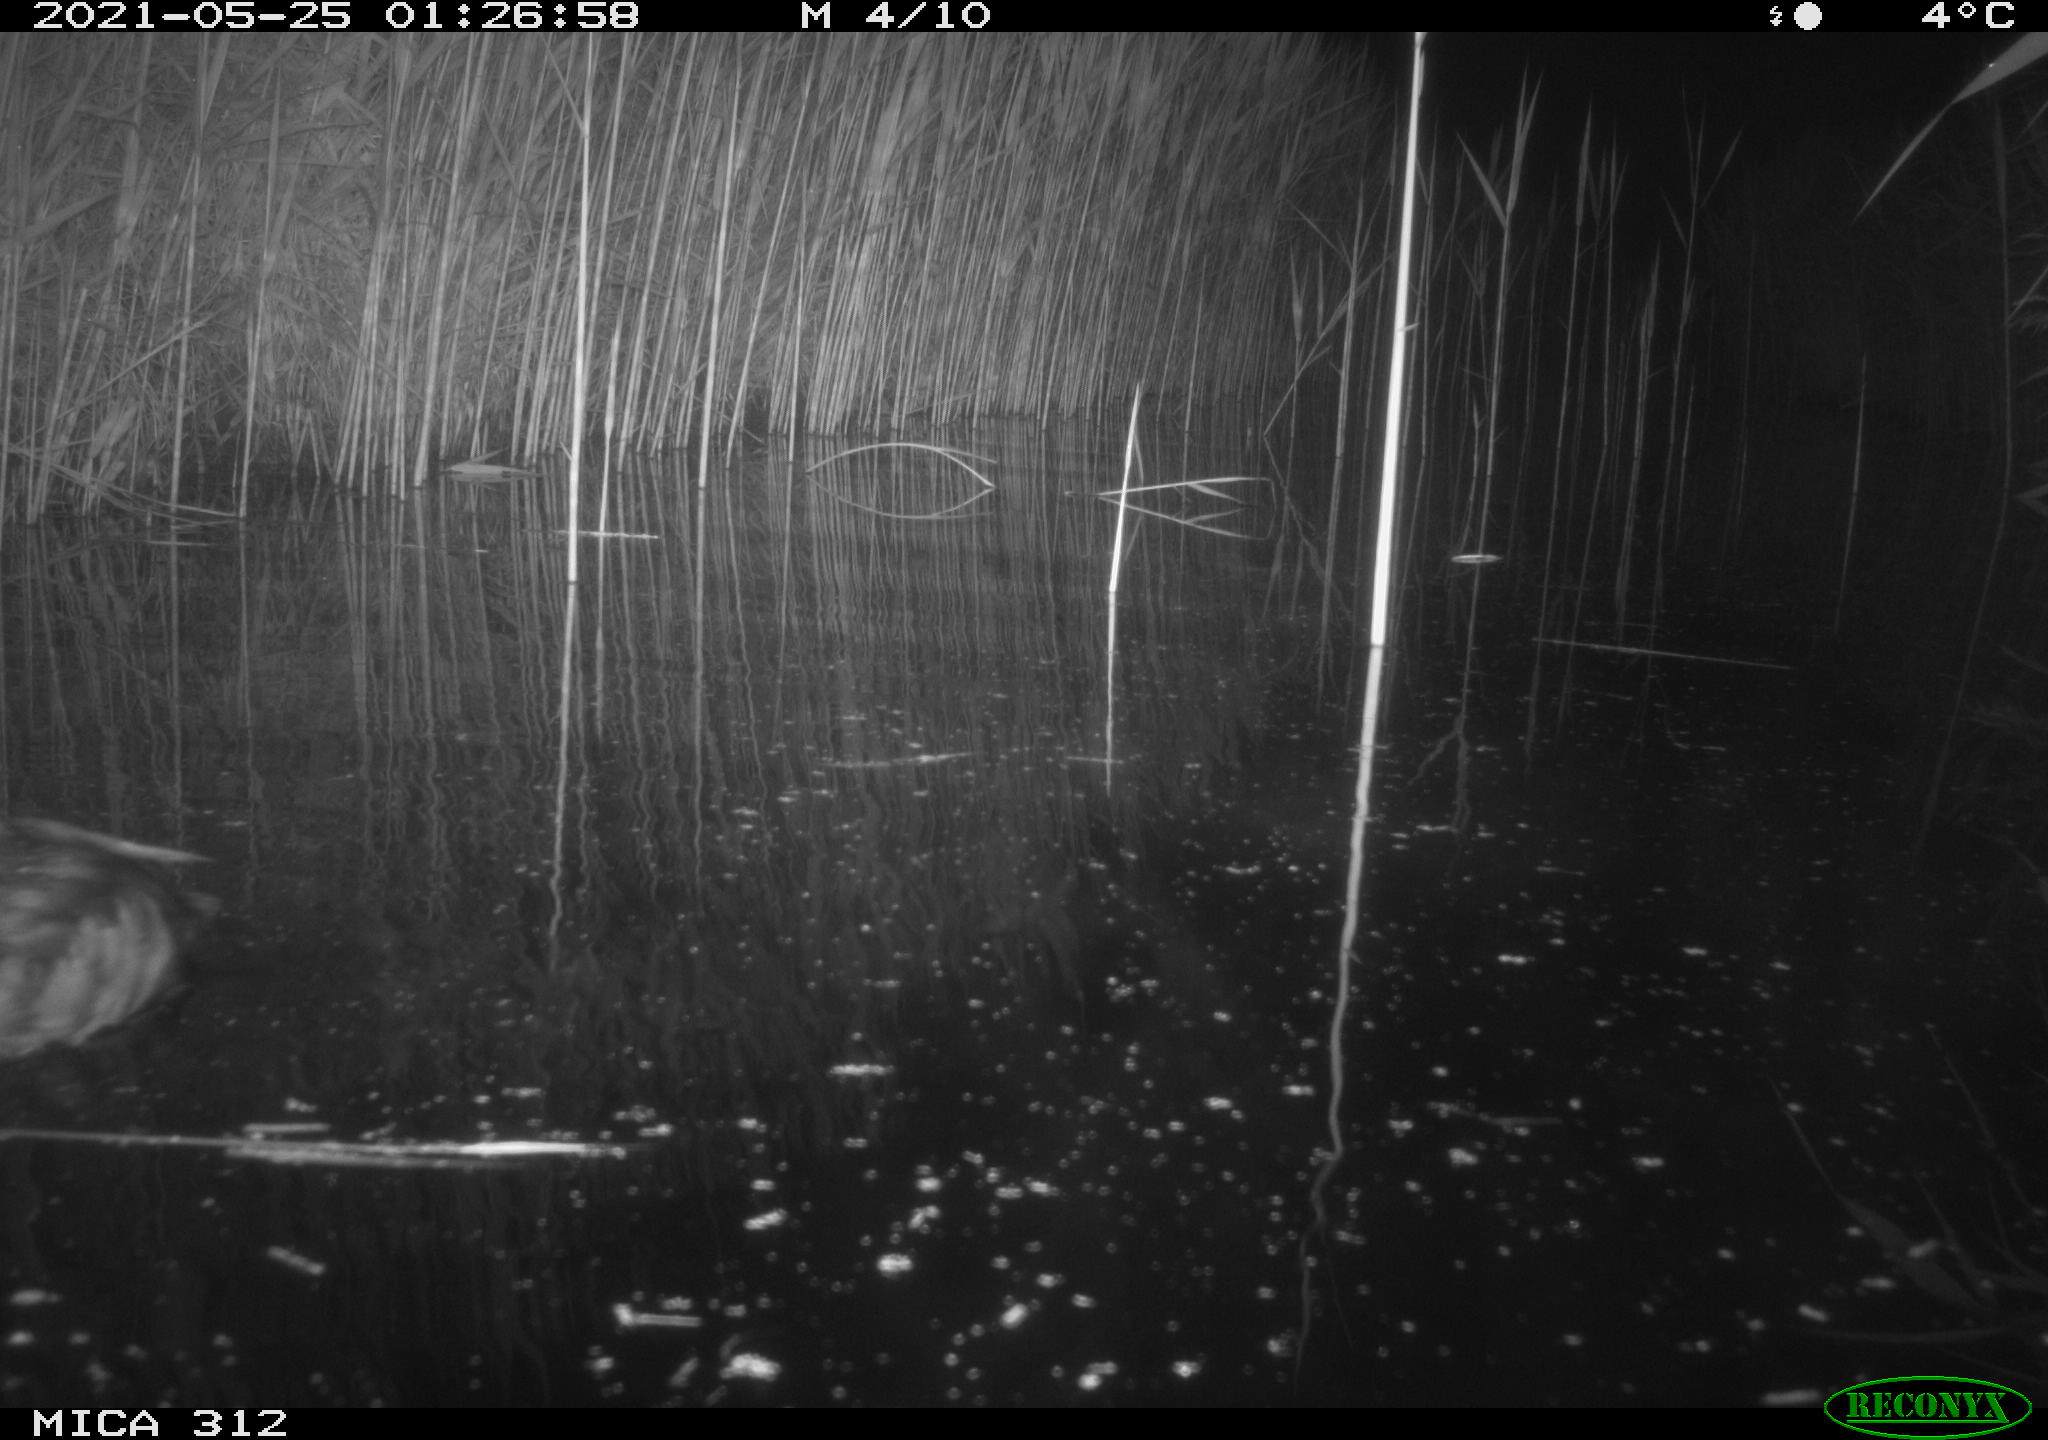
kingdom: Animalia
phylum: Chordata
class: Mammalia
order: Rodentia
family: Muridae
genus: Rattus
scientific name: Rattus norvegicus
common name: Brown rat
